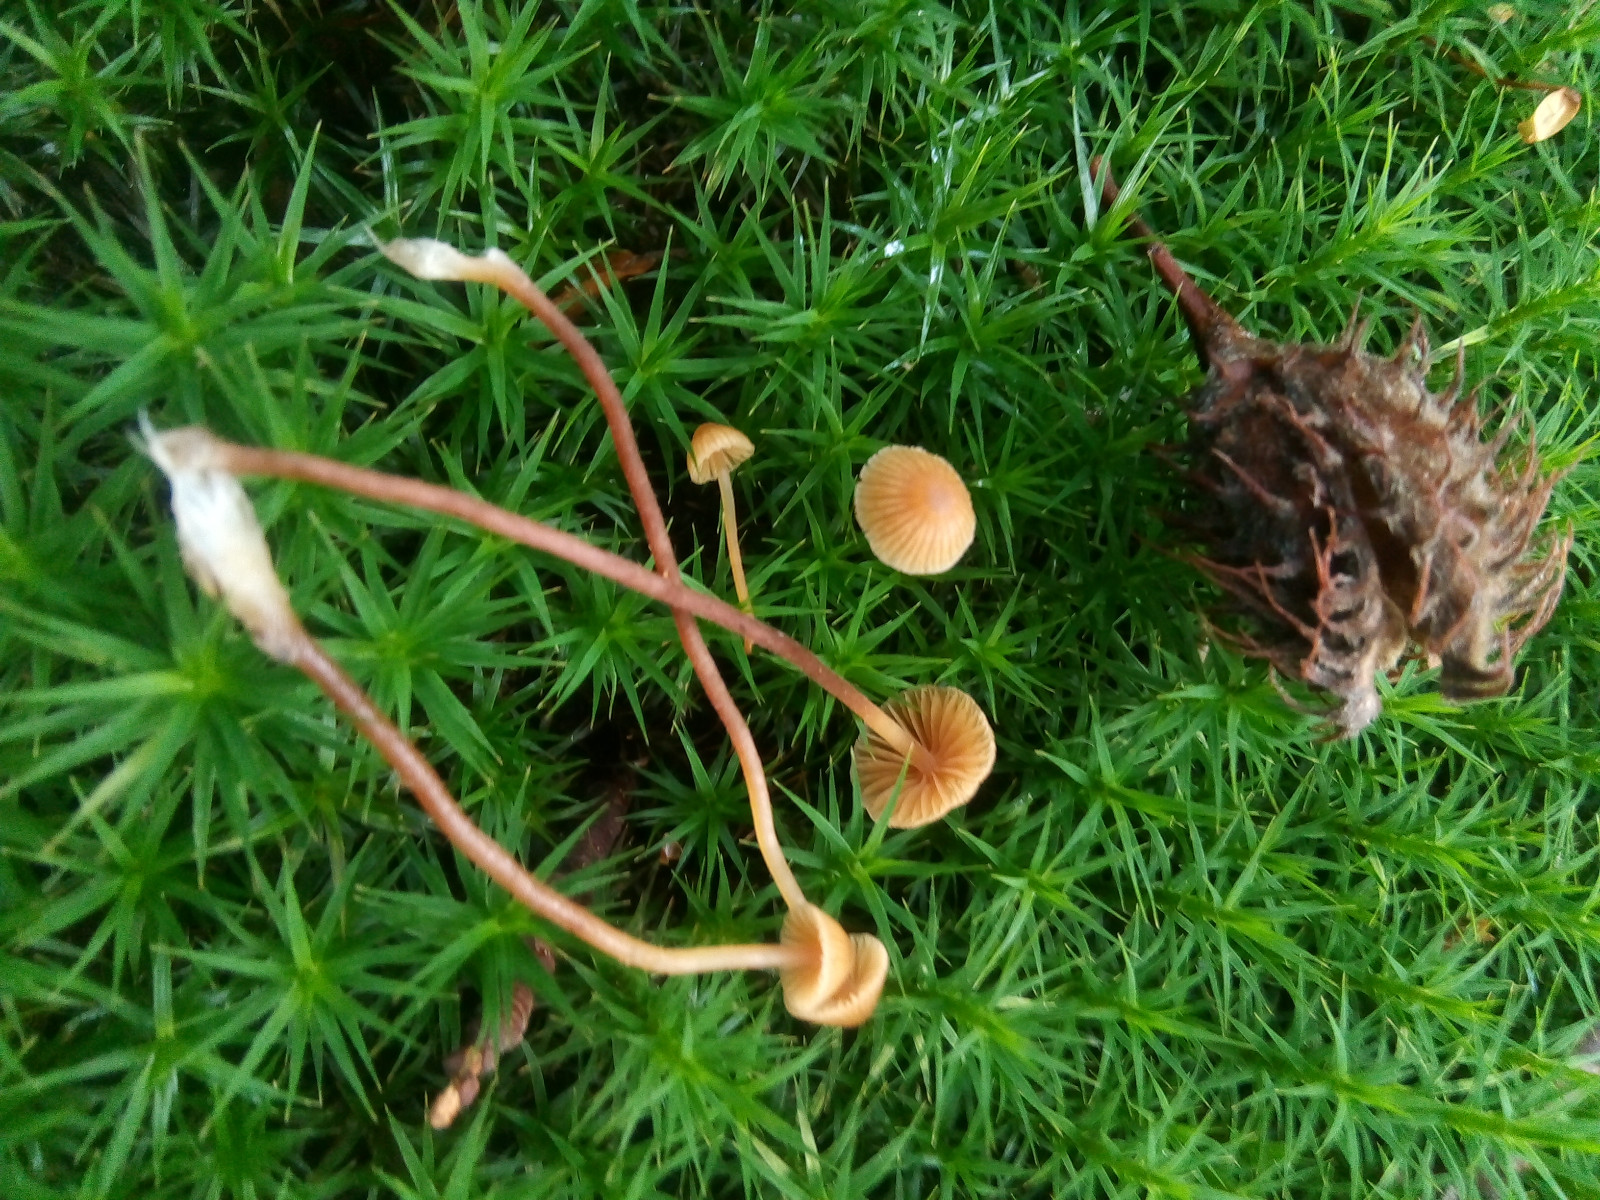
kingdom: Fungi
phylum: Basidiomycota
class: Agaricomycetes
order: Agaricales
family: Hymenogastraceae
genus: Galerina
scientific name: Galerina
